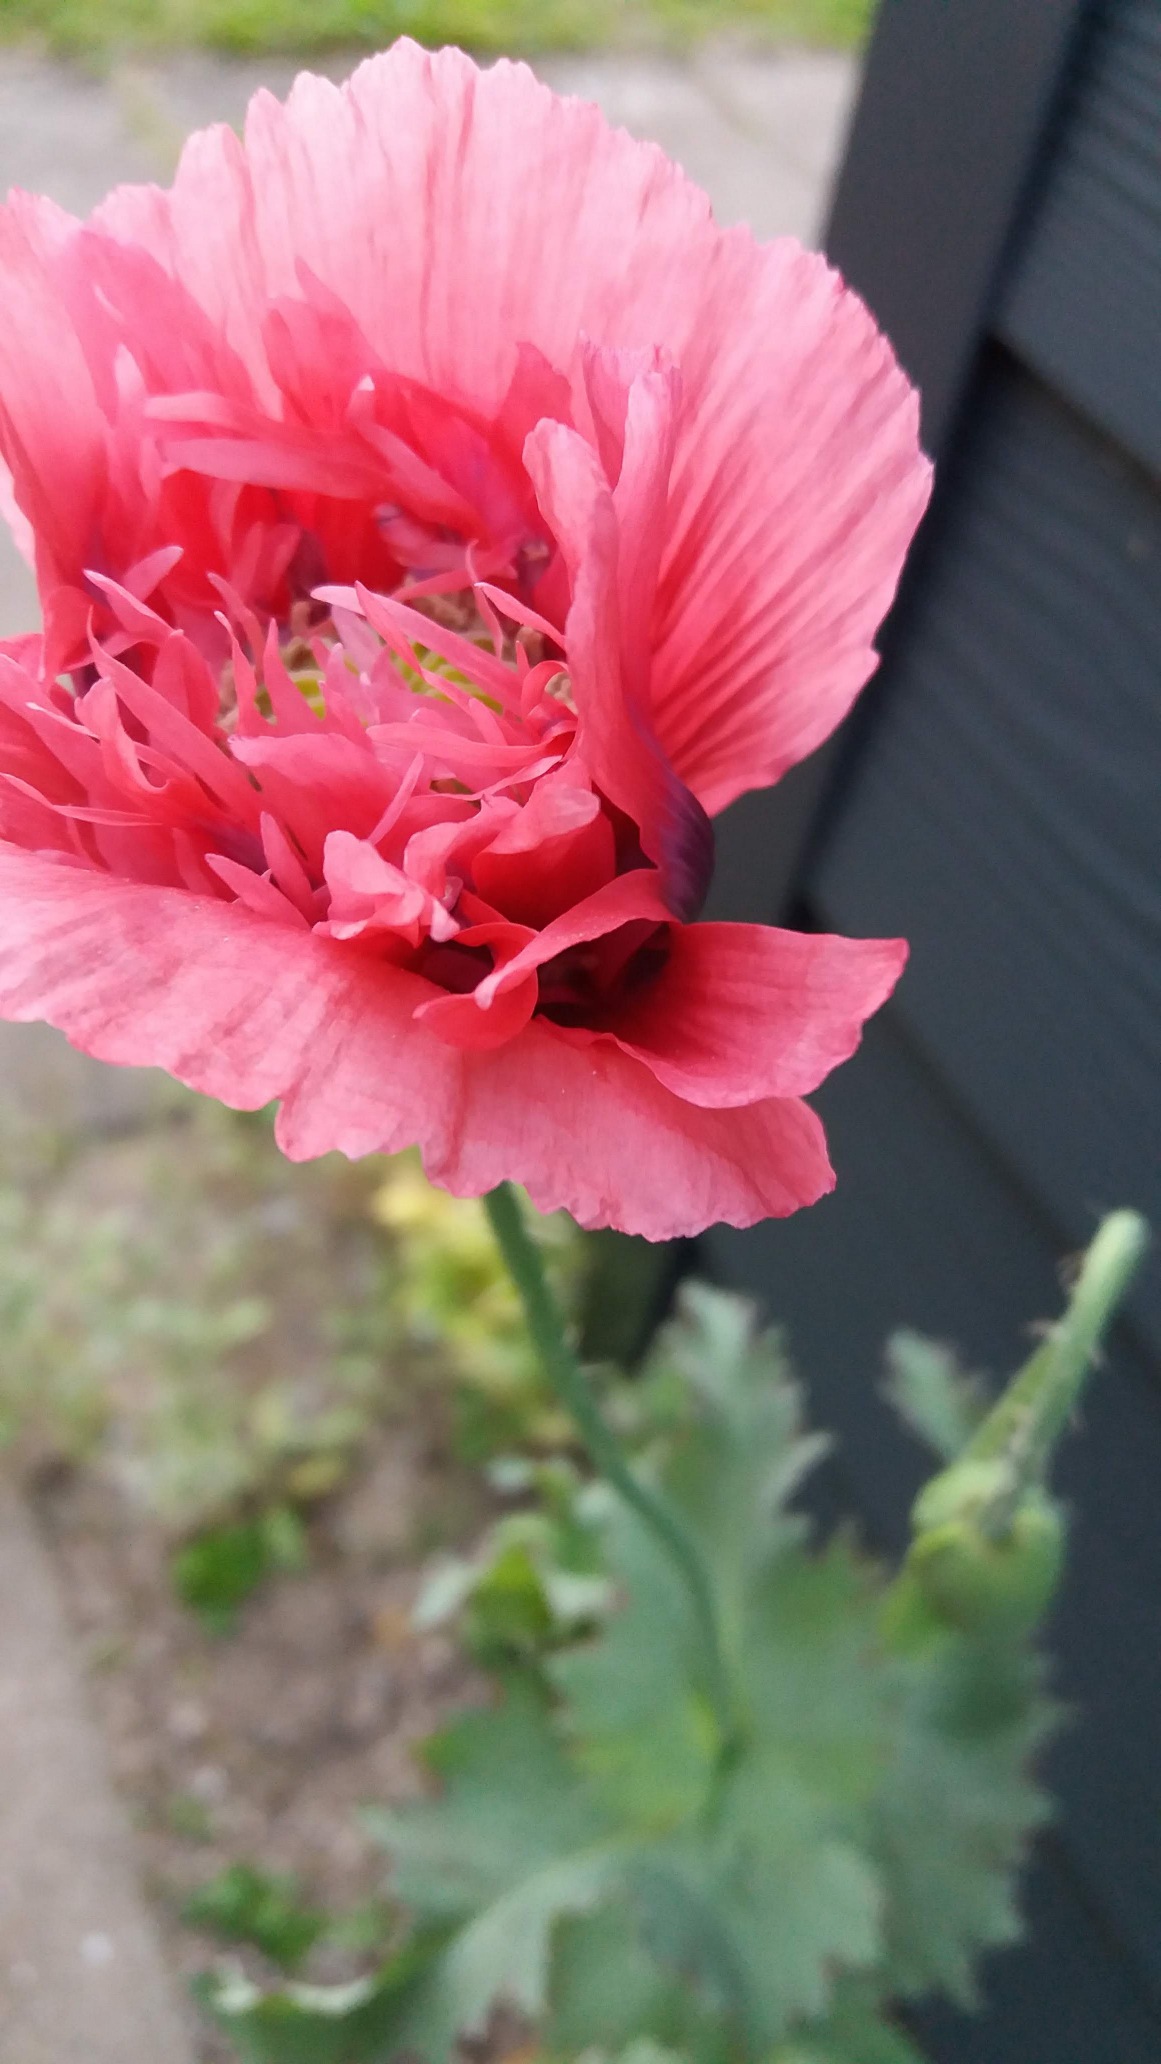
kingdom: Plantae
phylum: Tracheophyta
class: Magnoliopsida
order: Ranunculales
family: Papaveraceae
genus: Papaver
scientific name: Papaver somniferum
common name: Opium-valmue
